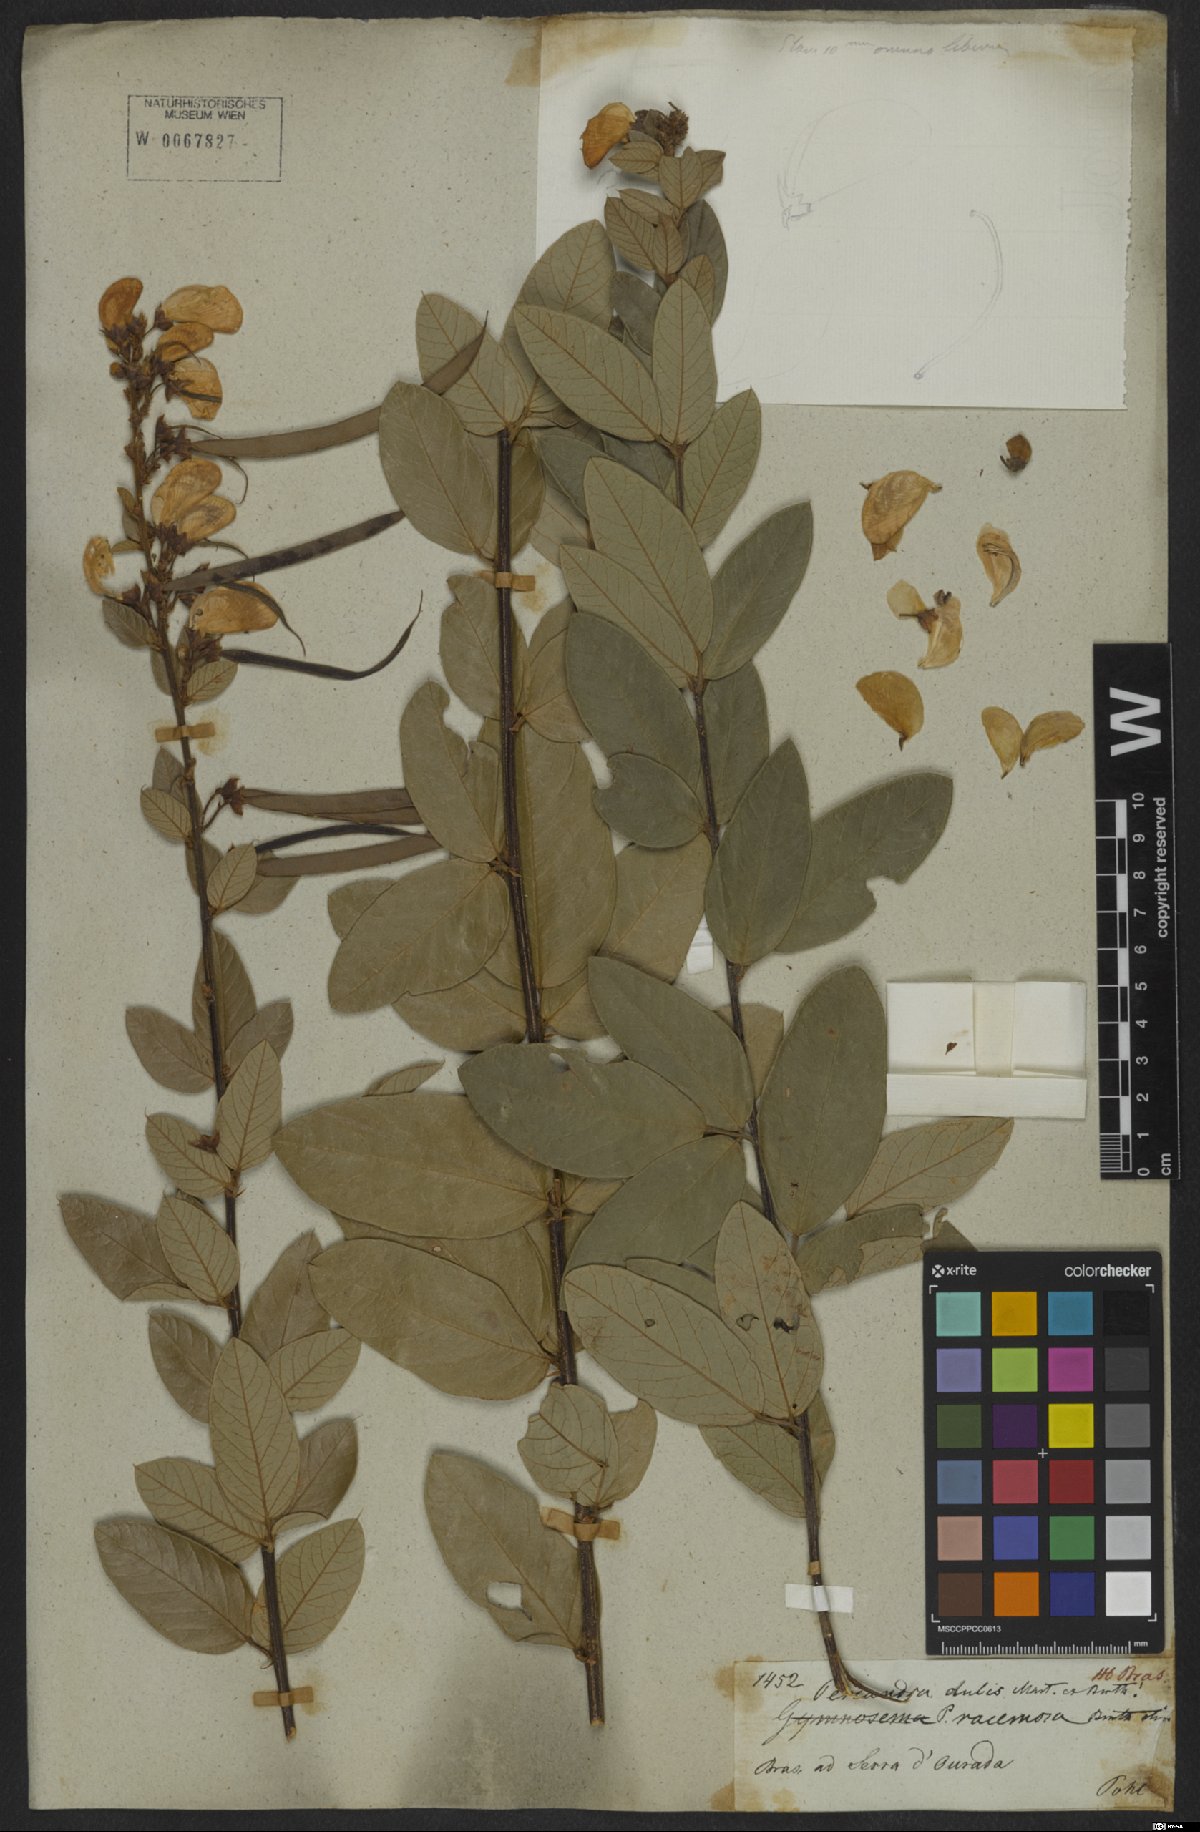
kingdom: Plantae
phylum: Tracheophyta
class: Magnoliopsida
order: Fabales
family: Fabaceae
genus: Periandra
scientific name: Periandra mediterranea
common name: Brazilian licorice
